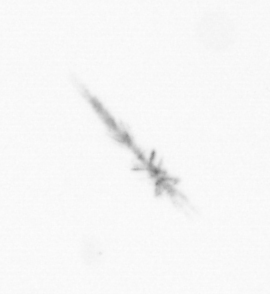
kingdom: Chromista
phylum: Ochrophyta
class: Bacillariophyceae
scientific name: Bacillariophyceae
